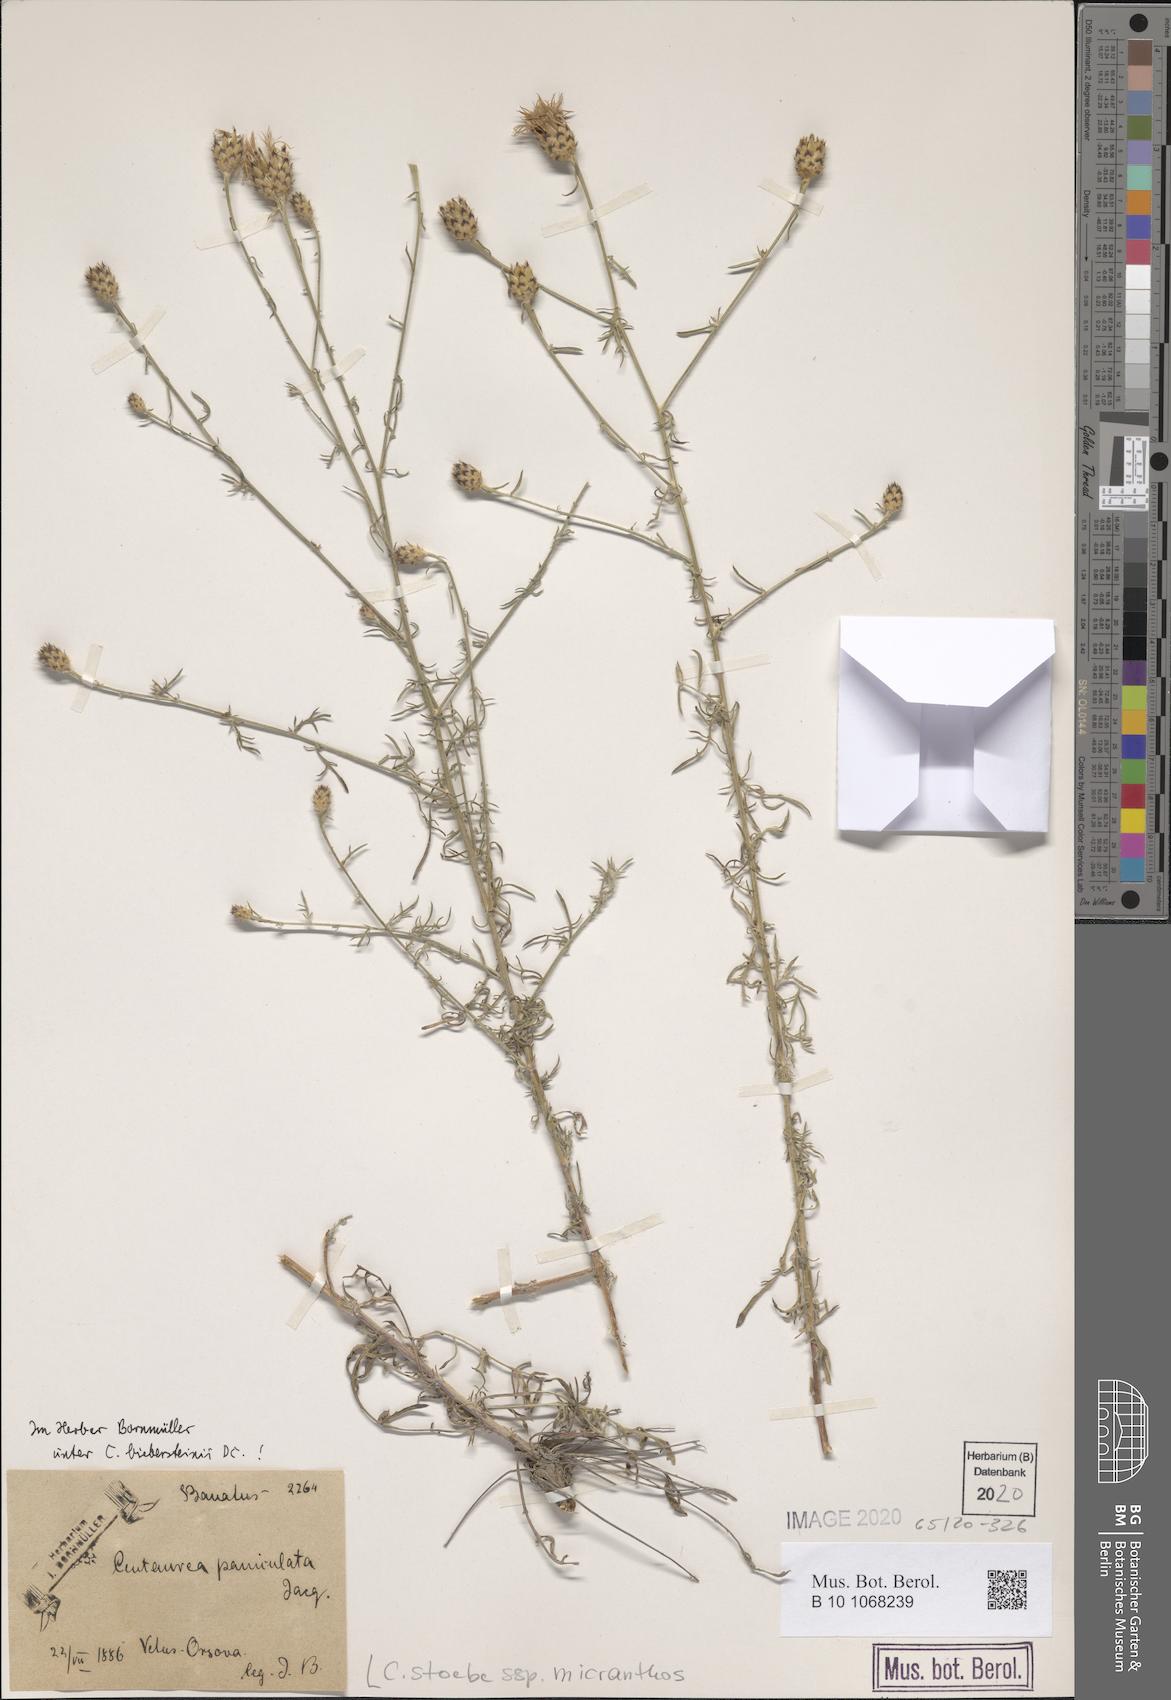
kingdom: Plantae
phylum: Tracheophyta
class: Magnoliopsida
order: Asterales
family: Asteraceae
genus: Centaurea
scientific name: Centaurea australis
